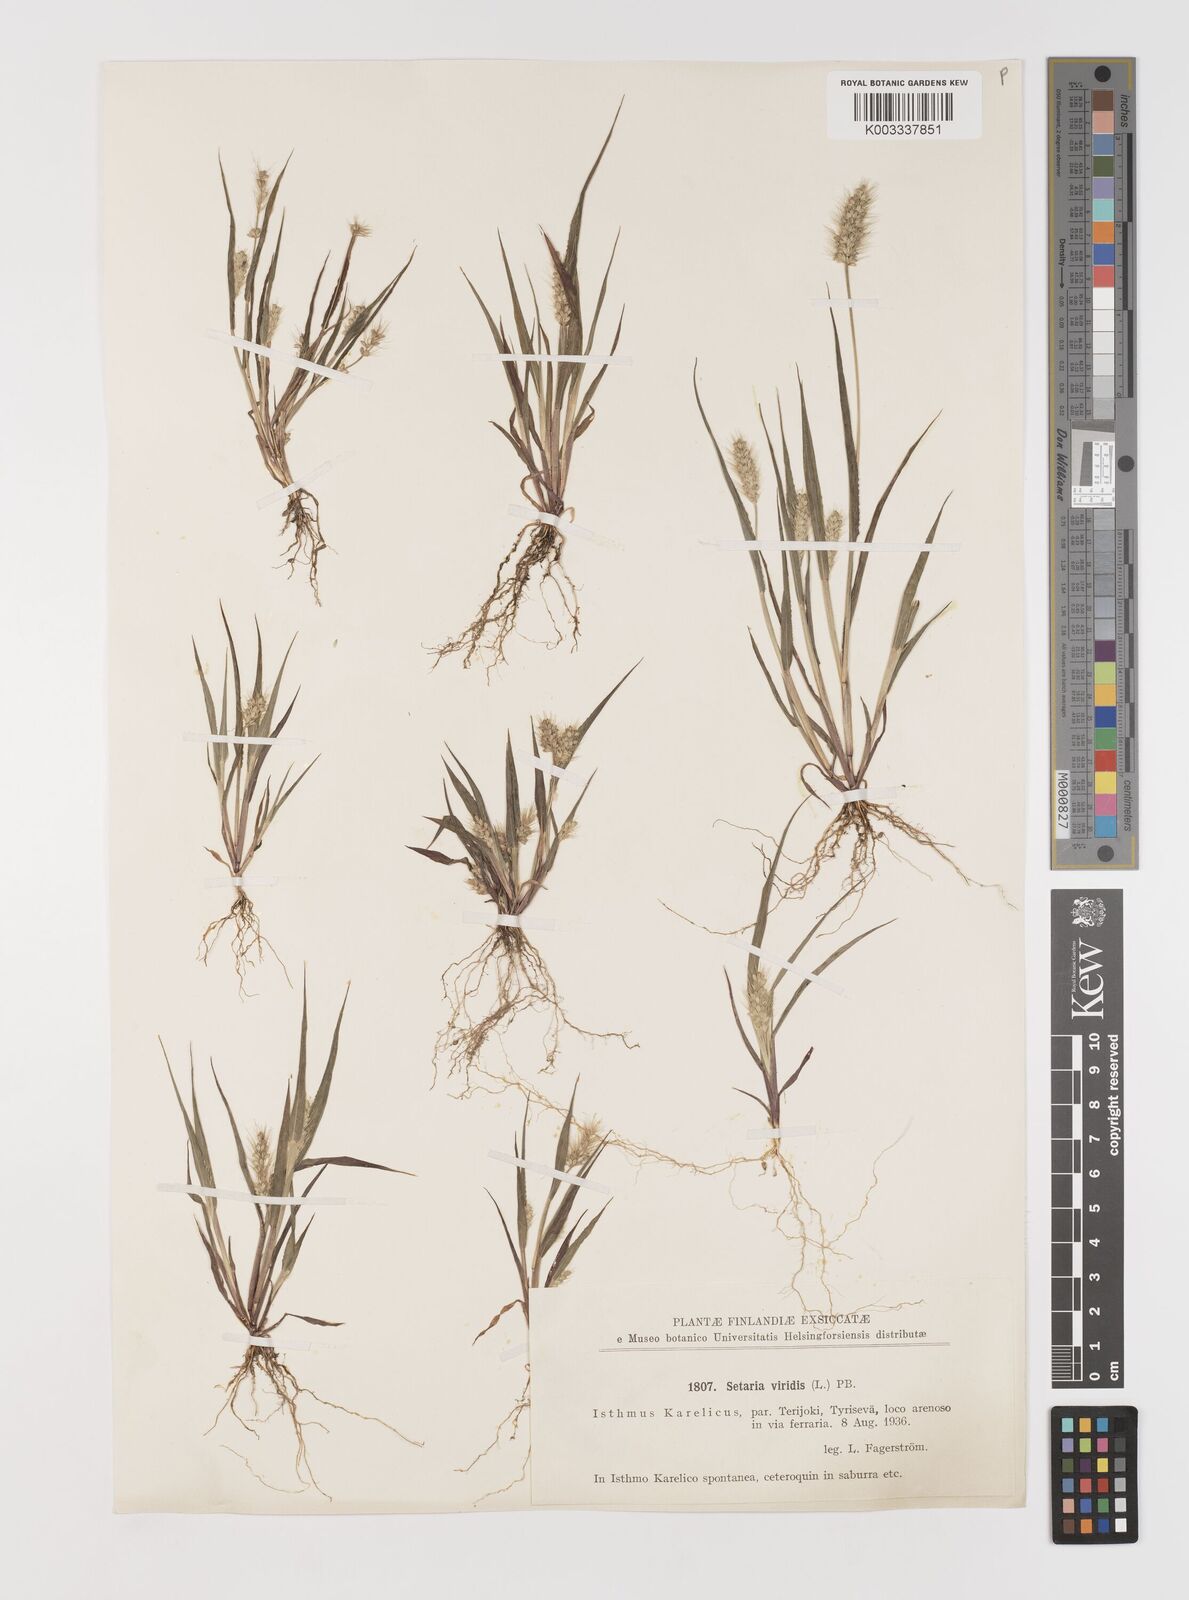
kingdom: Plantae
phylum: Tracheophyta
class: Liliopsida
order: Poales
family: Poaceae
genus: Setaria
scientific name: Setaria viridis
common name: Green bristlegrass
